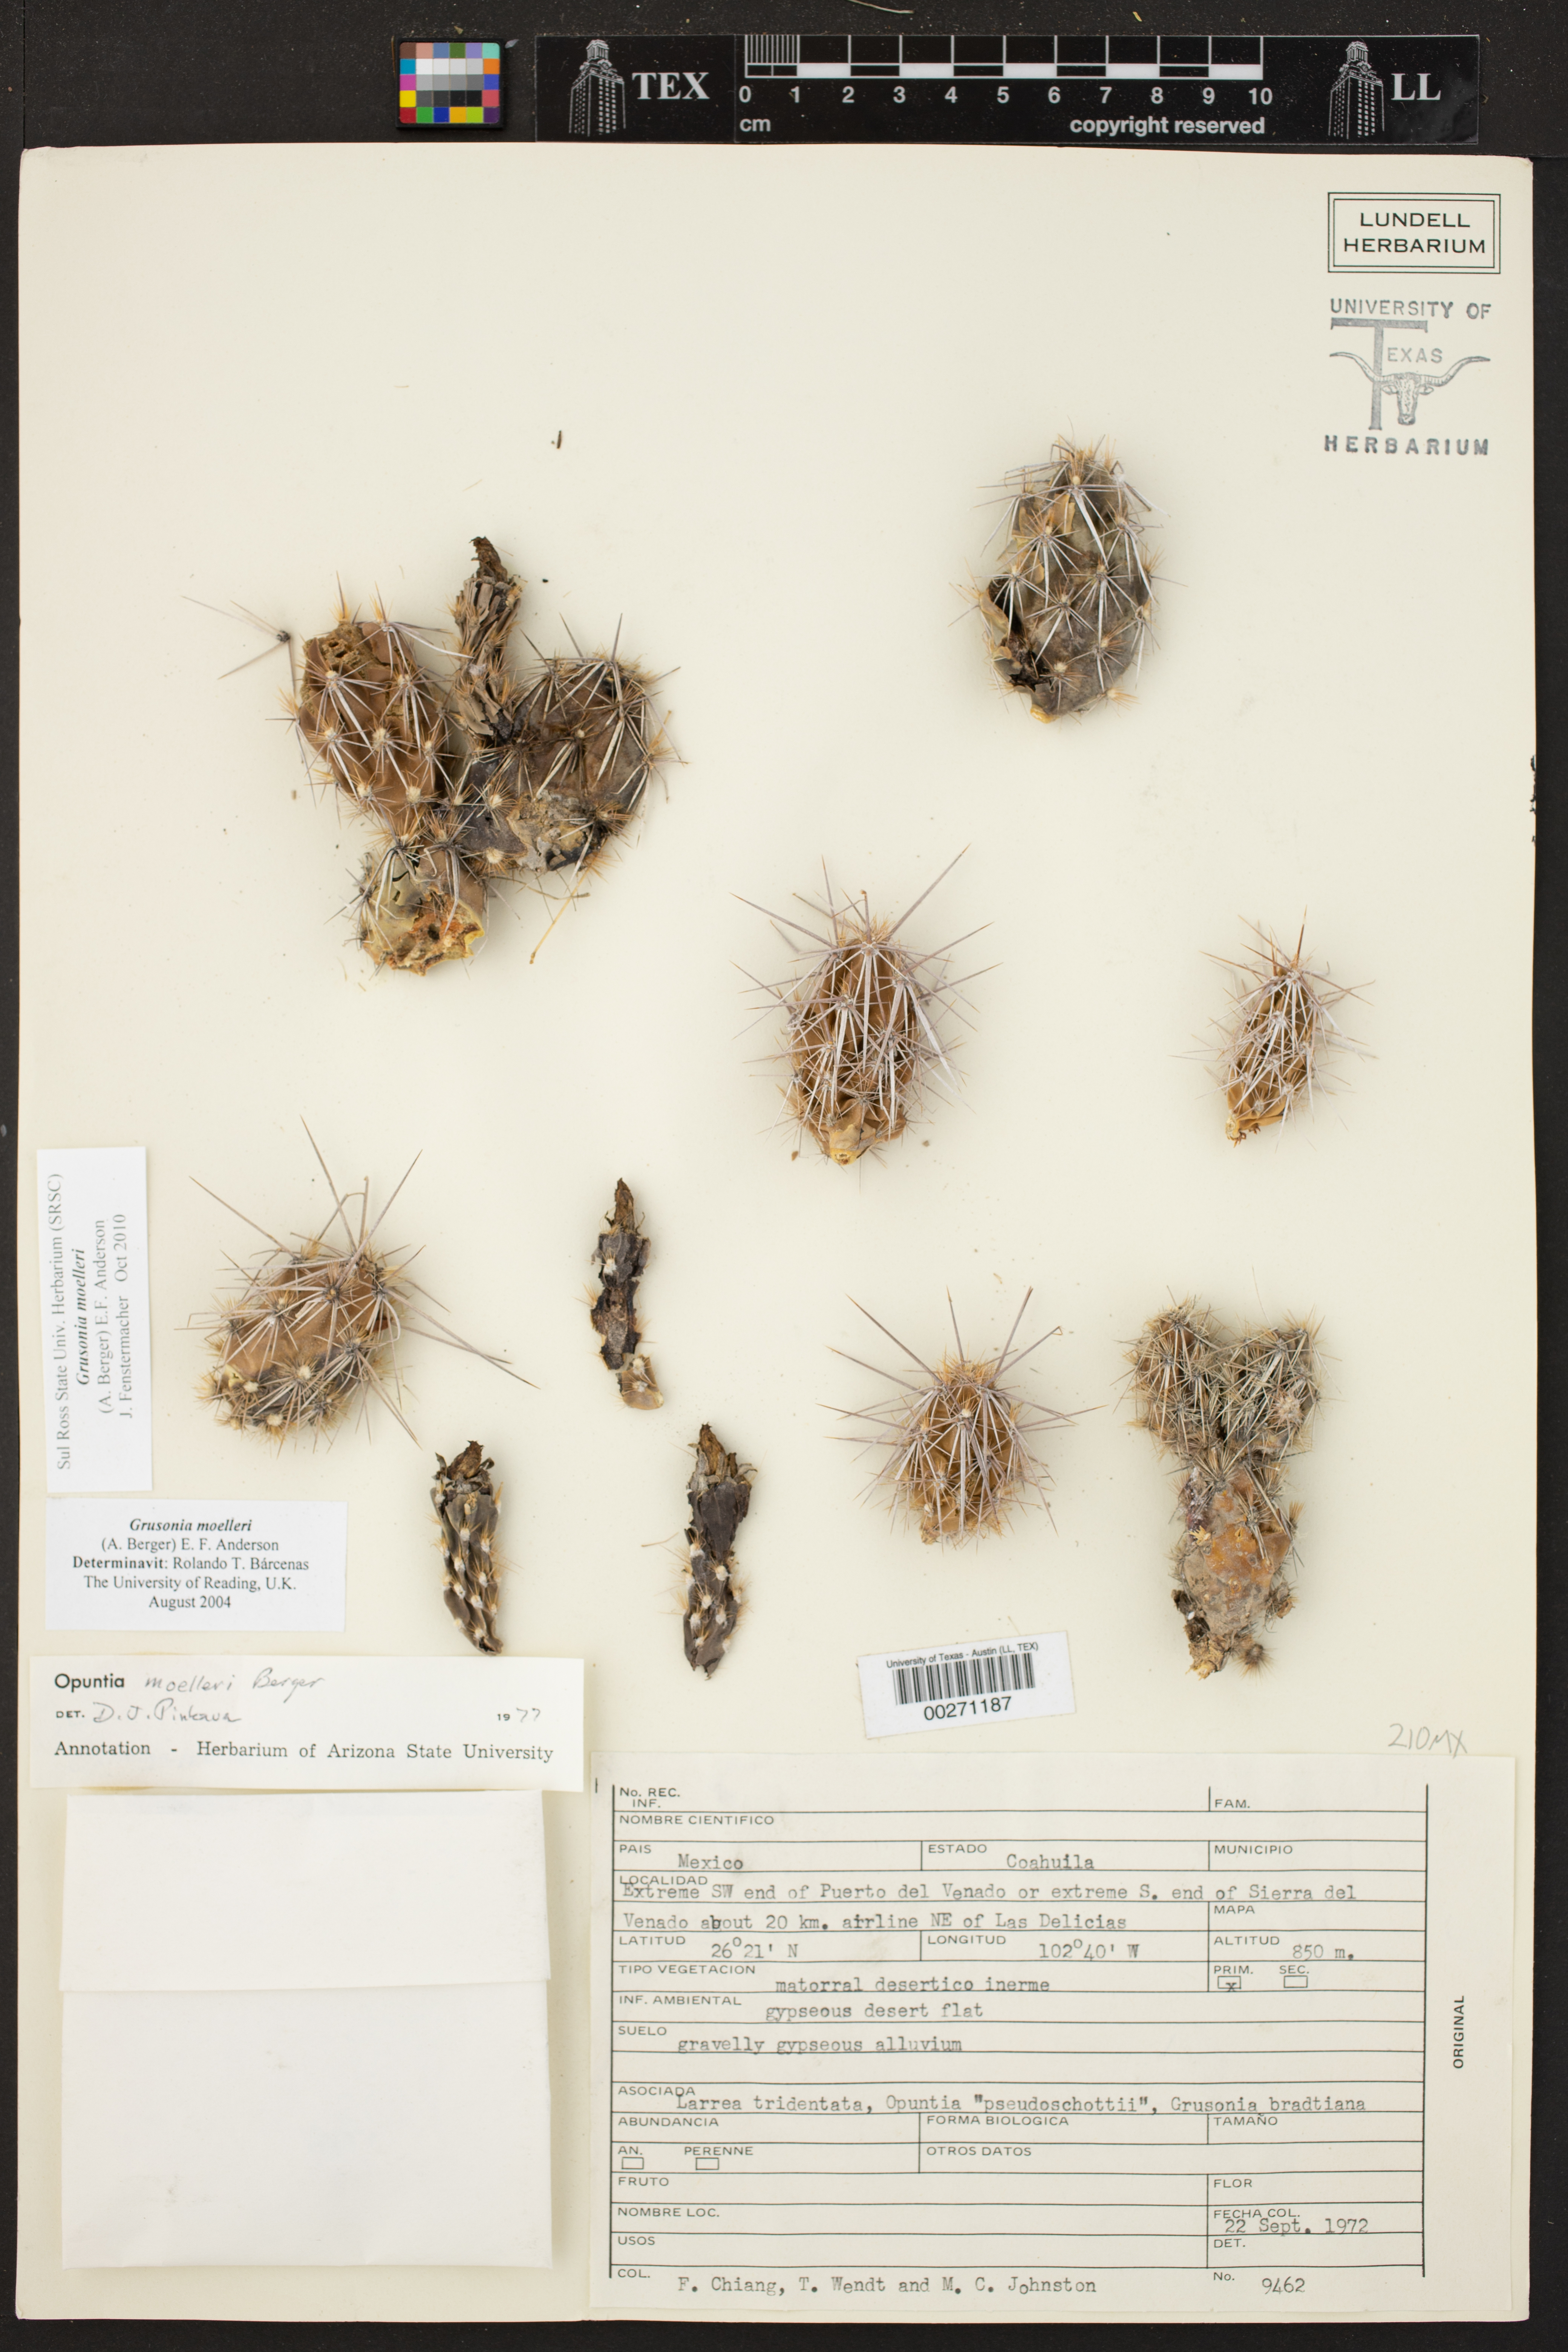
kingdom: Plantae
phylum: Tracheophyta
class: Magnoliopsida
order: Caryophyllales
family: Cactaceae
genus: Grusonia
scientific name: Grusonia moelleri
